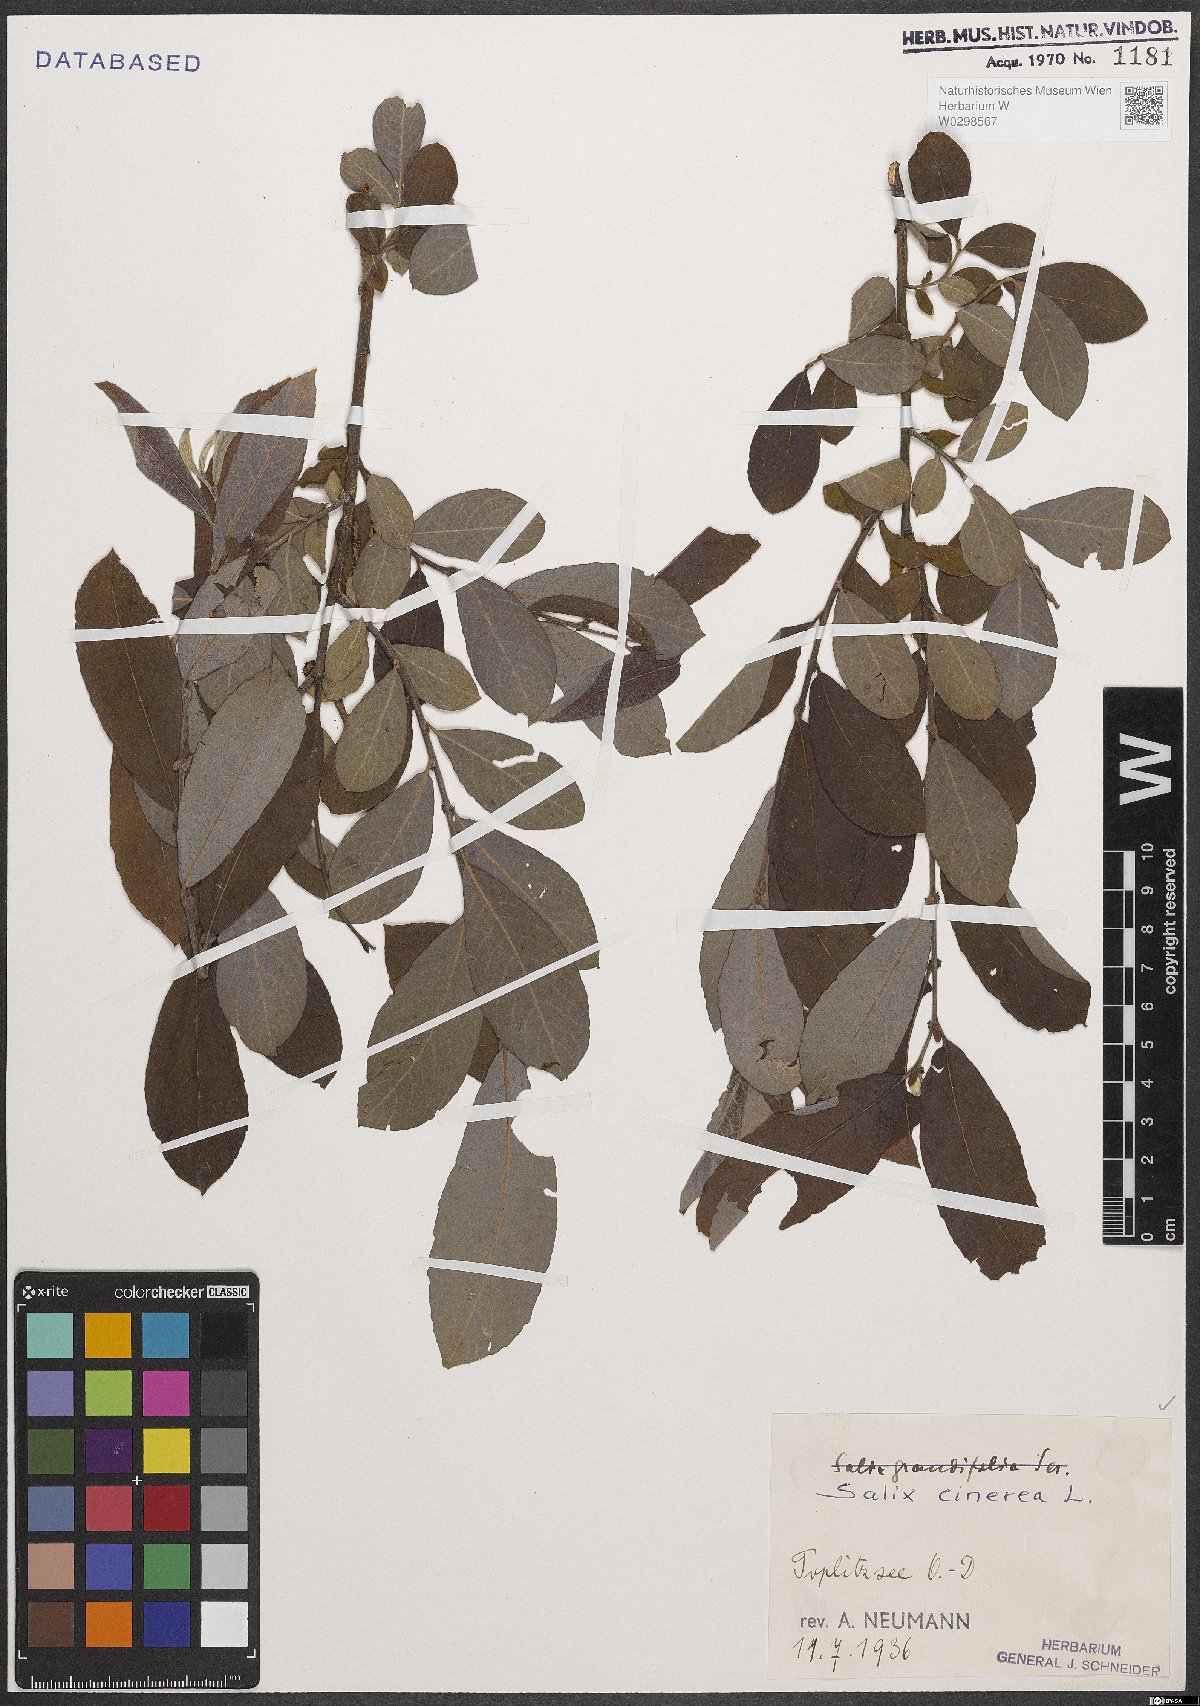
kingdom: Plantae
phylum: Tracheophyta
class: Magnoliopsida
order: Malpighiales
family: Salicaceae
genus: Salix
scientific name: Salix cinerea
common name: Common sallow
